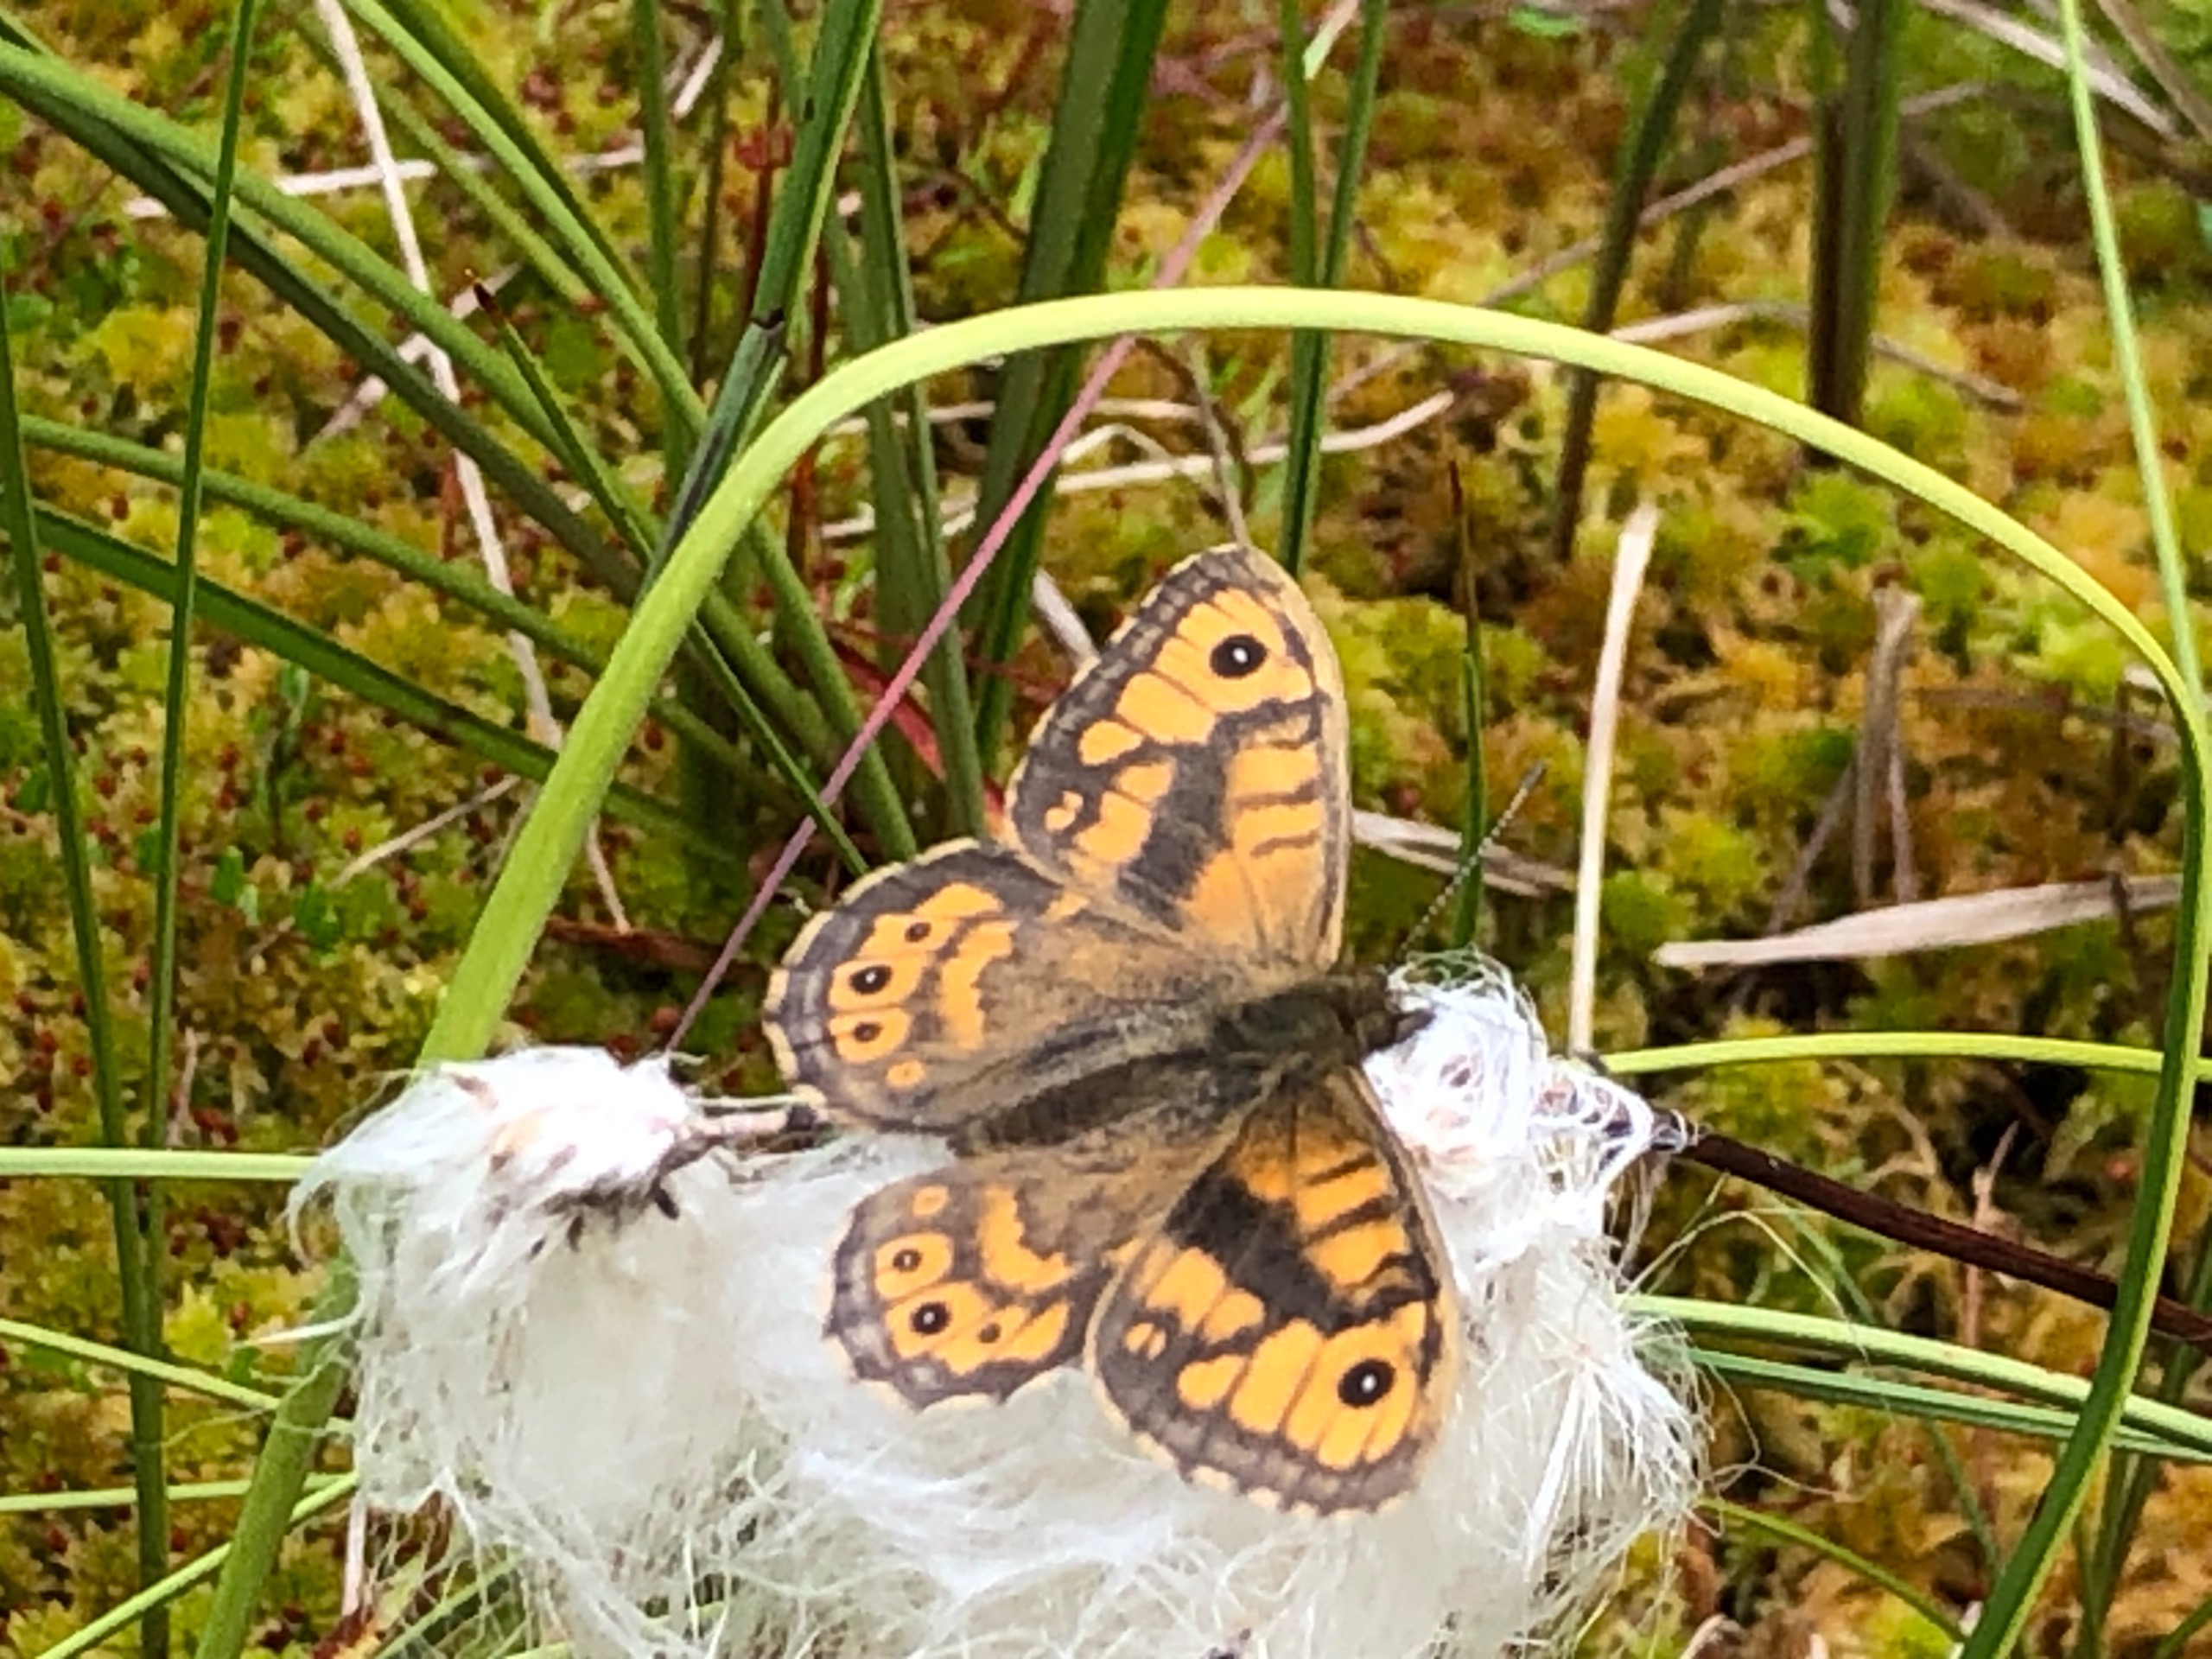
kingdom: Animalia
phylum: Arthropoda
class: Insecta
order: Lepidoptera
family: Nymphalidae
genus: Pararge
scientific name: Pararge Lasiommata megera
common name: Vejrandøje
